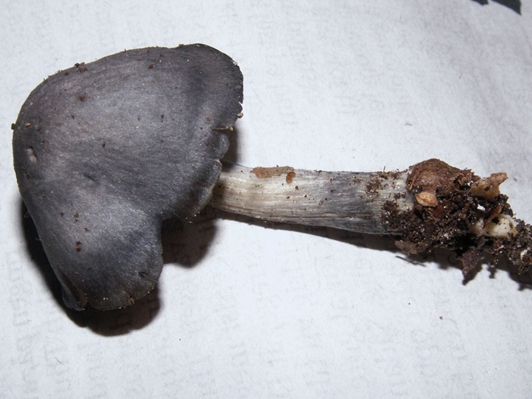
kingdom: Fungi
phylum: Basidiomycota
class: Agaricomycetes
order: Agaricales
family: Entolomataceae
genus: Entocybe
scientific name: Entocybe nitida
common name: stålblå rødblad
